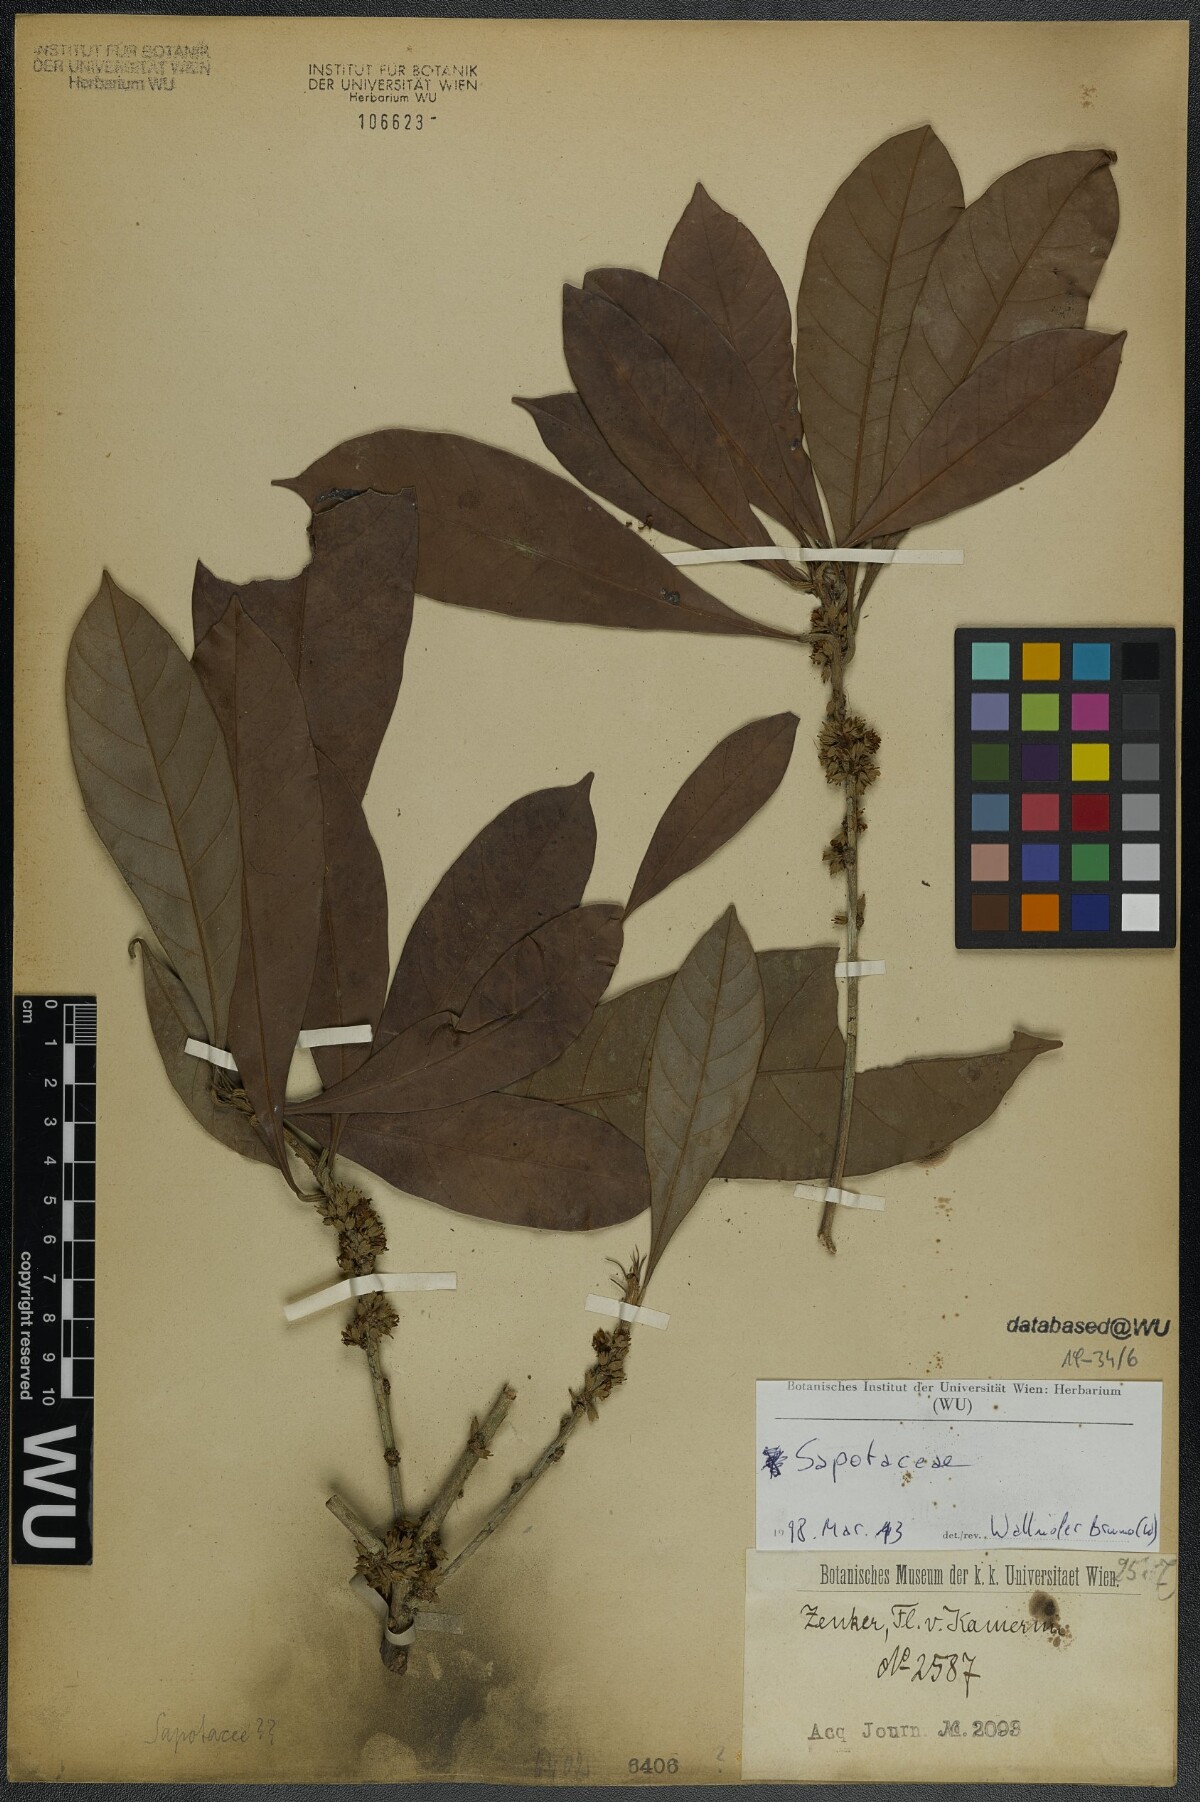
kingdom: Plantae
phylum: Tracheophyta
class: Magnoliopsida
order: Ericales
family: Sapotaceae
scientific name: Sapotaceae
